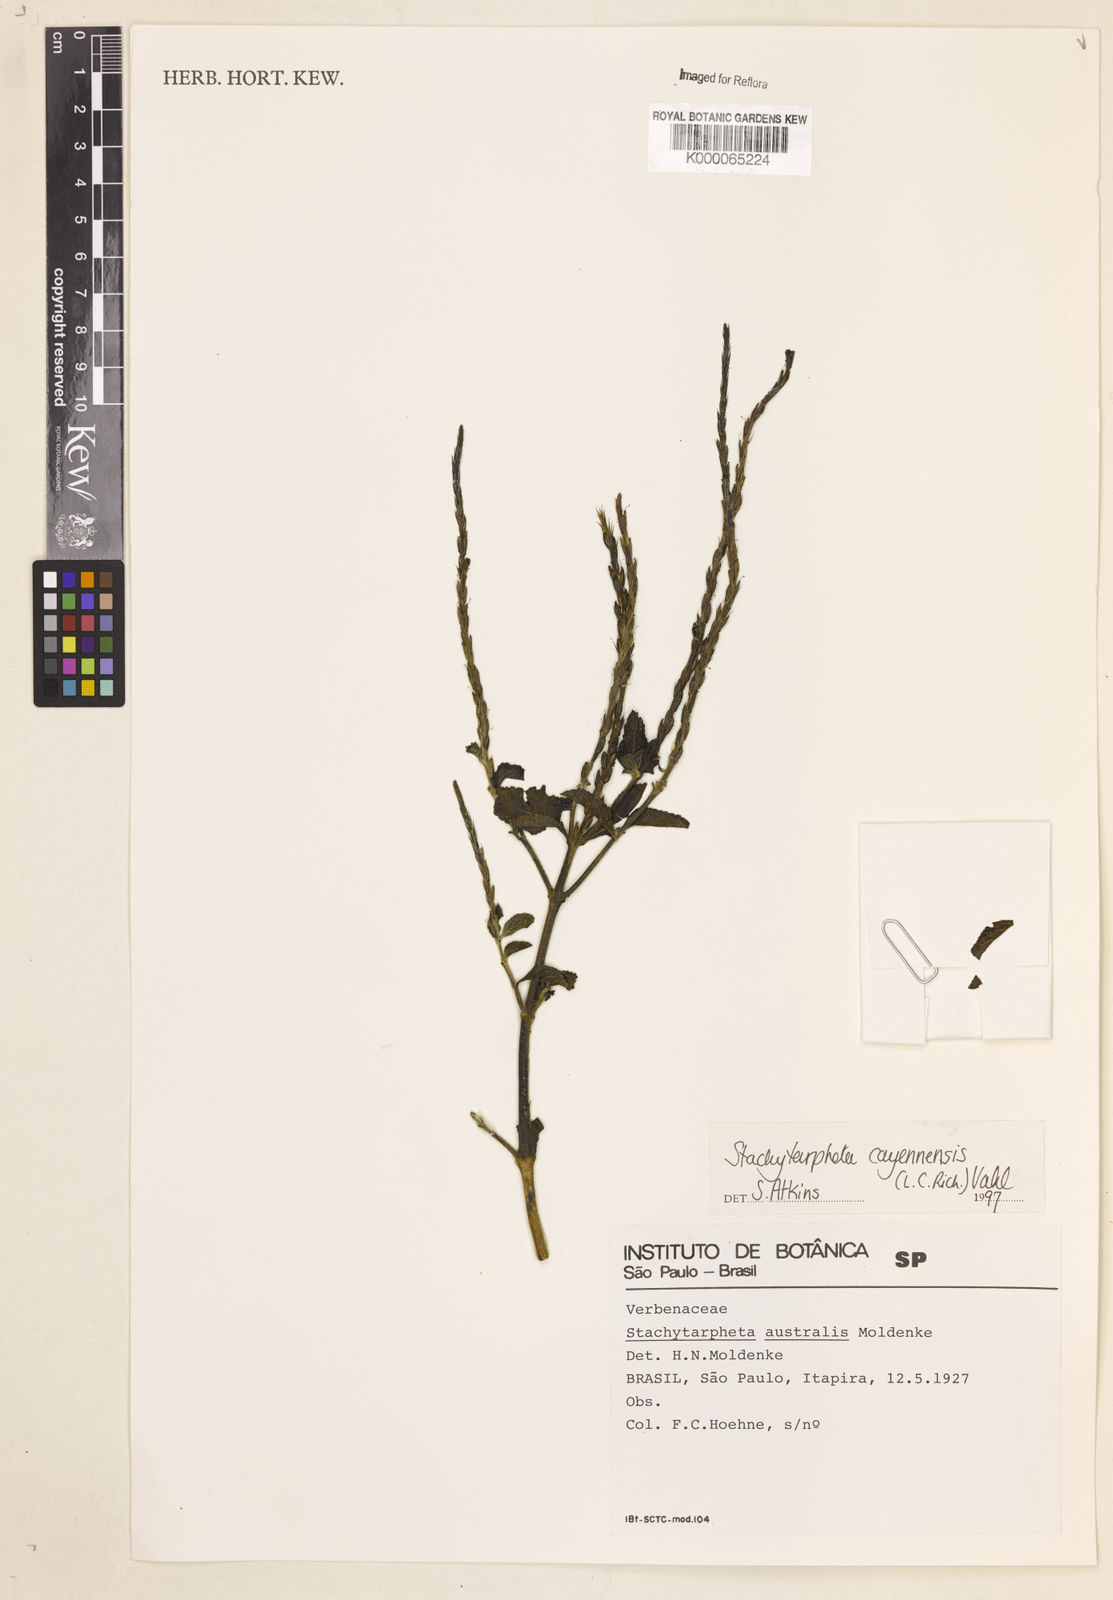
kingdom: Plantae
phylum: Tracheophyta
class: Magnoliopsida
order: Lamiales
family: Verbenaceae
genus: Stachytarpheta
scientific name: Stachytarpheta cayennensis
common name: Cayenne porterweed
